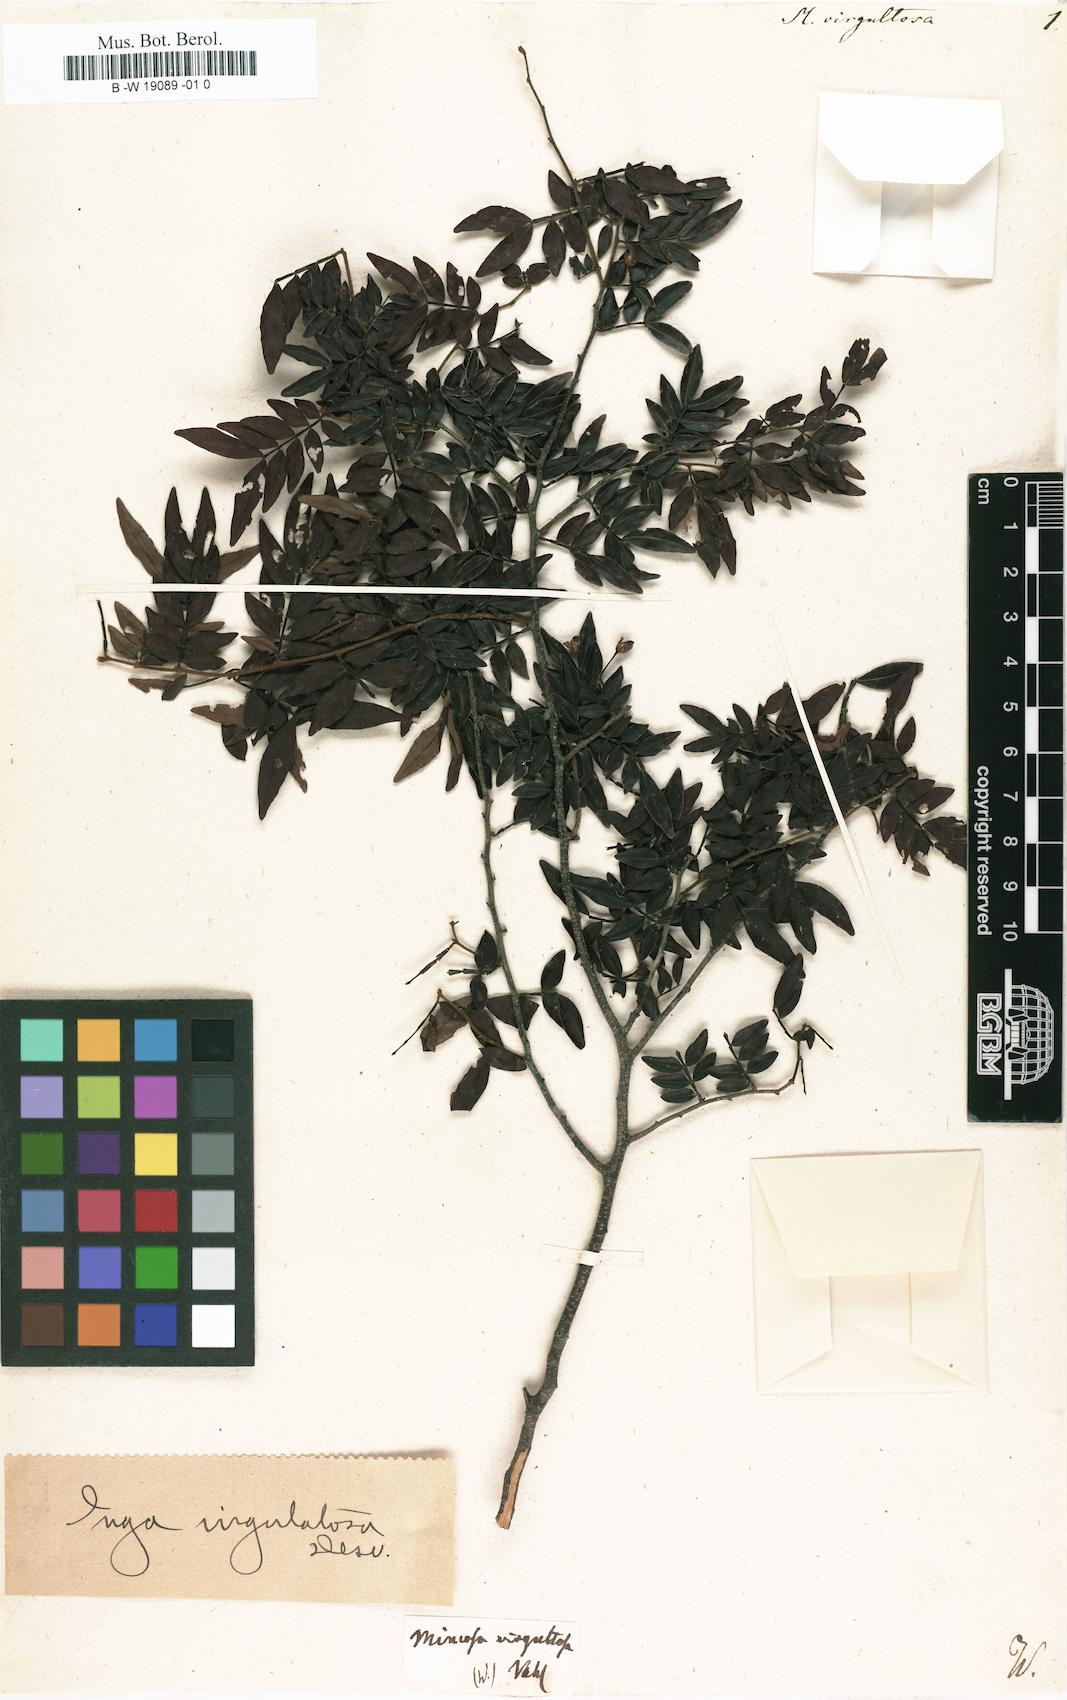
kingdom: Plantae
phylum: Tracheophyta
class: Magnoliopsida
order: Fabales
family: Fabaceae
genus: Inga
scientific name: Inga virgultosa
